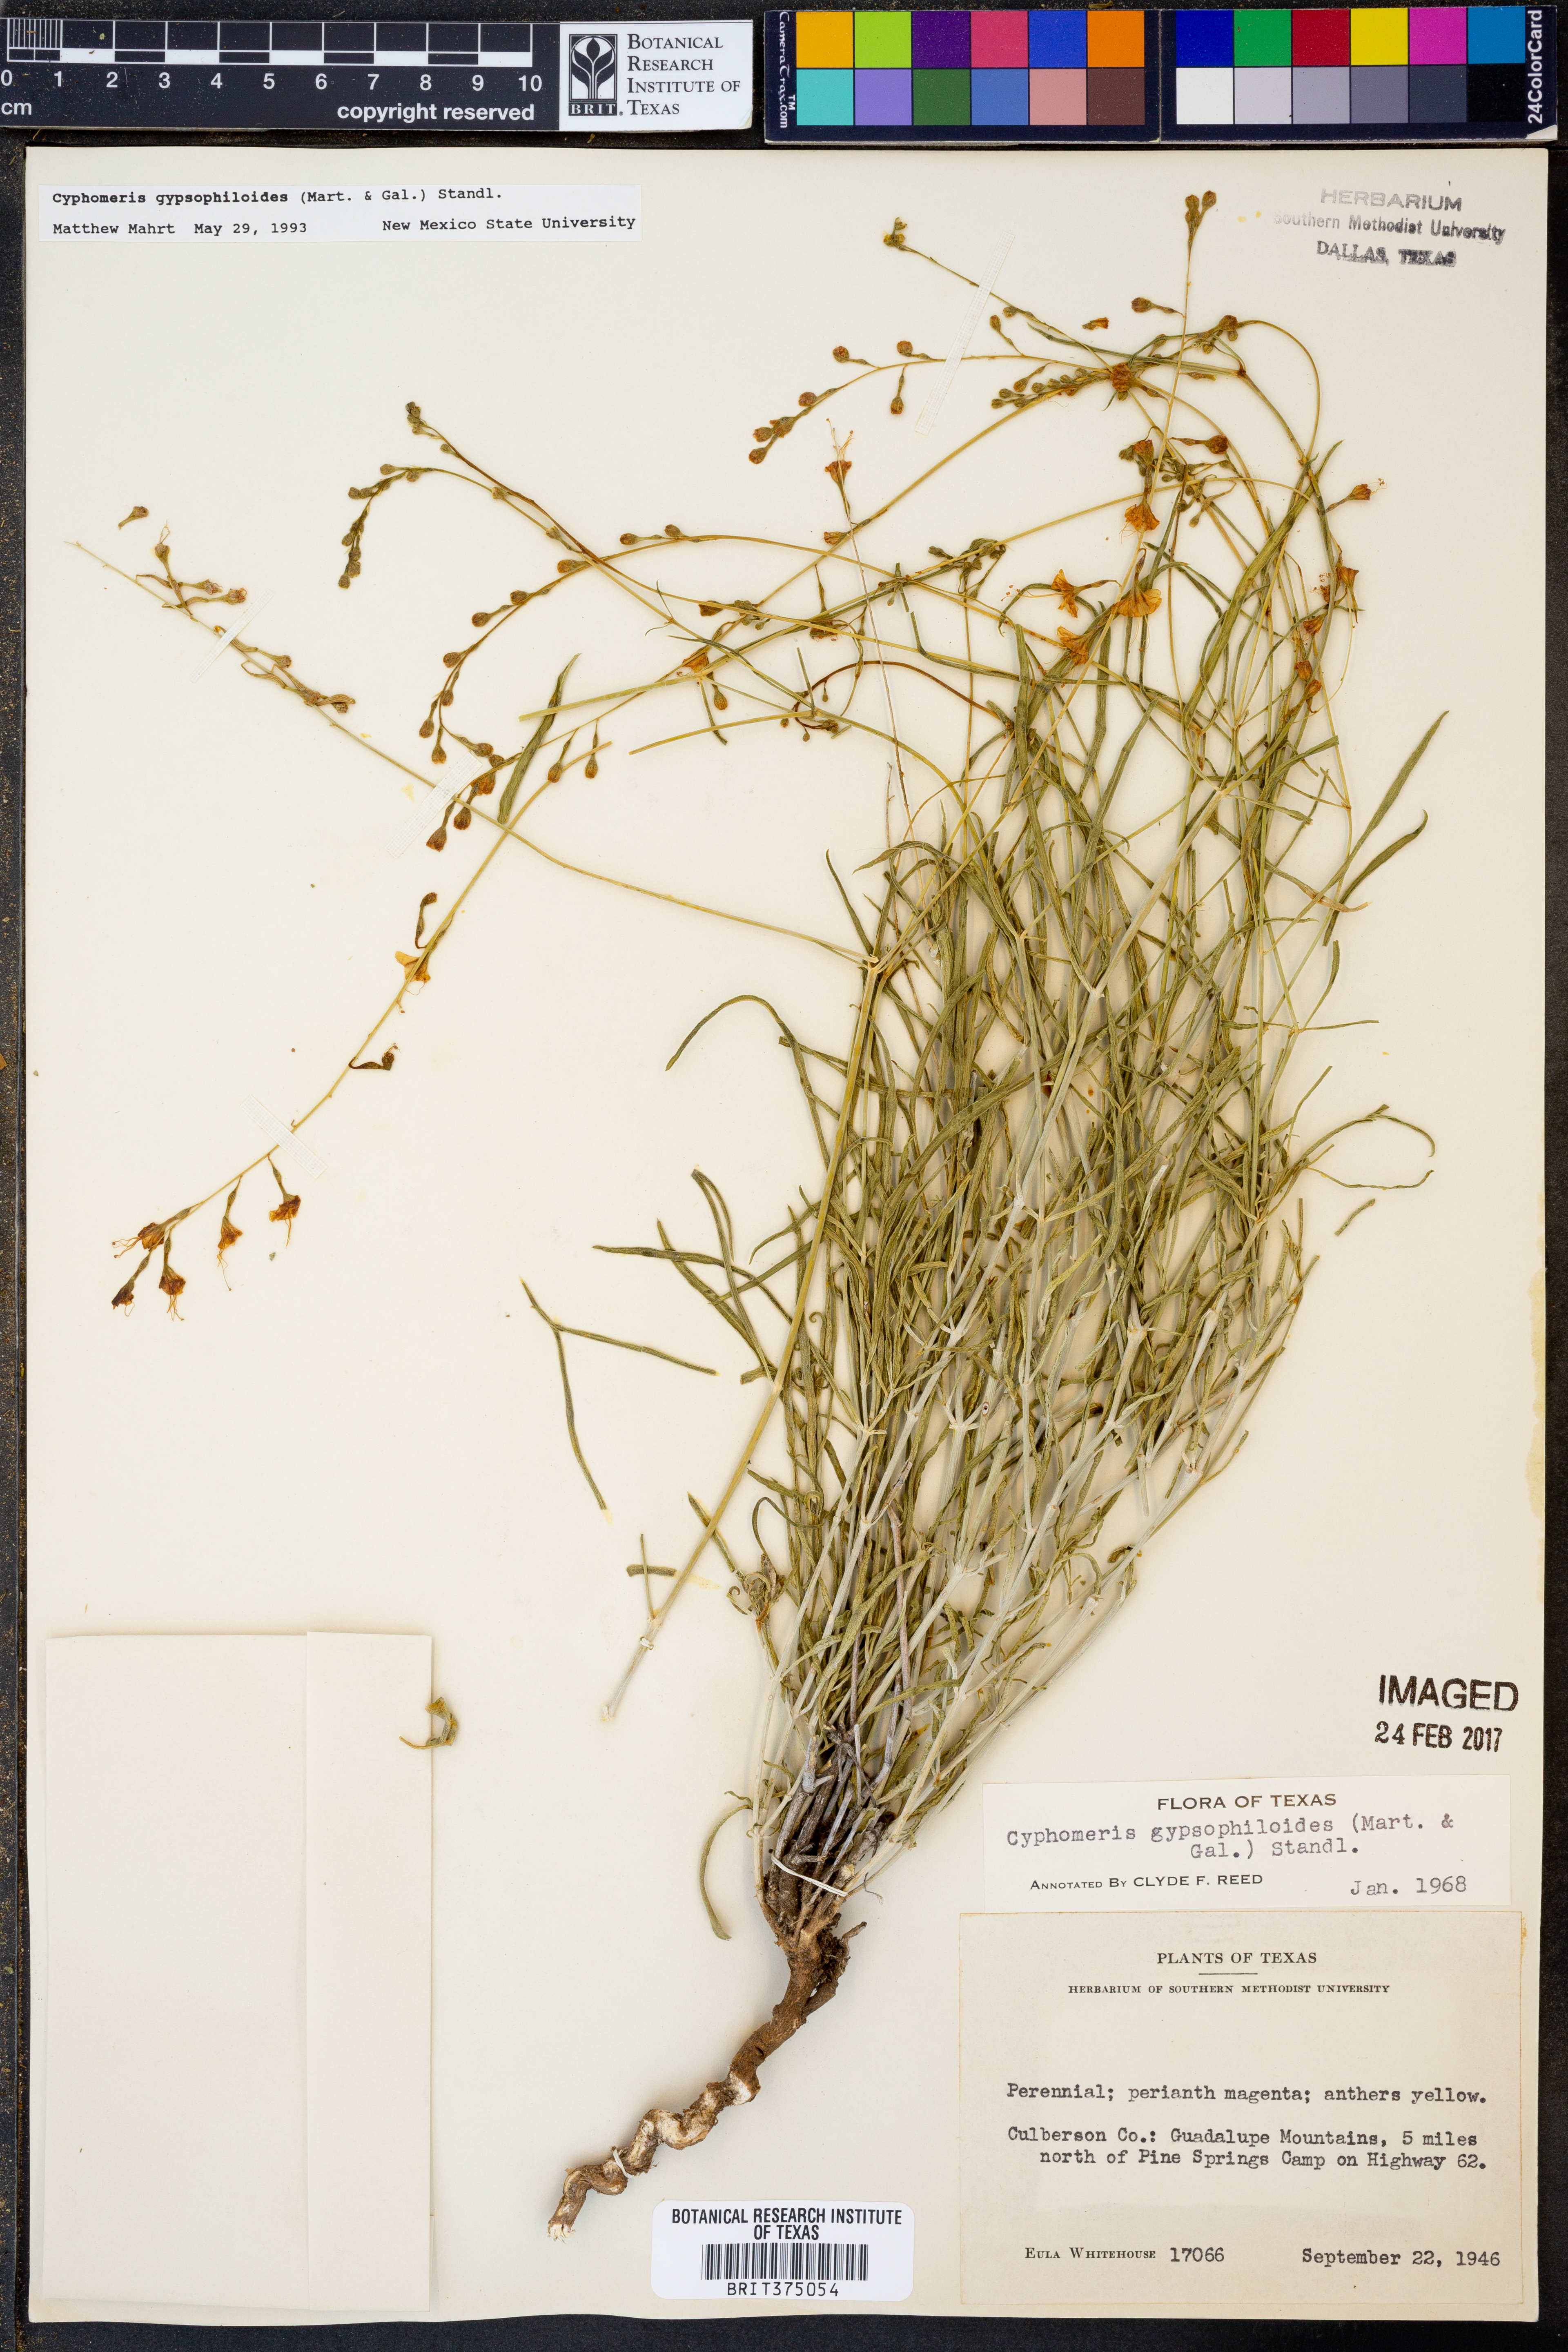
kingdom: Plantae
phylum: Tracheophyta
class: Magnoliopsida
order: Caryophyllales
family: Nyctaginaceae
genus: Cyphomeris
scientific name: Cyphomeris gypsophiloides
